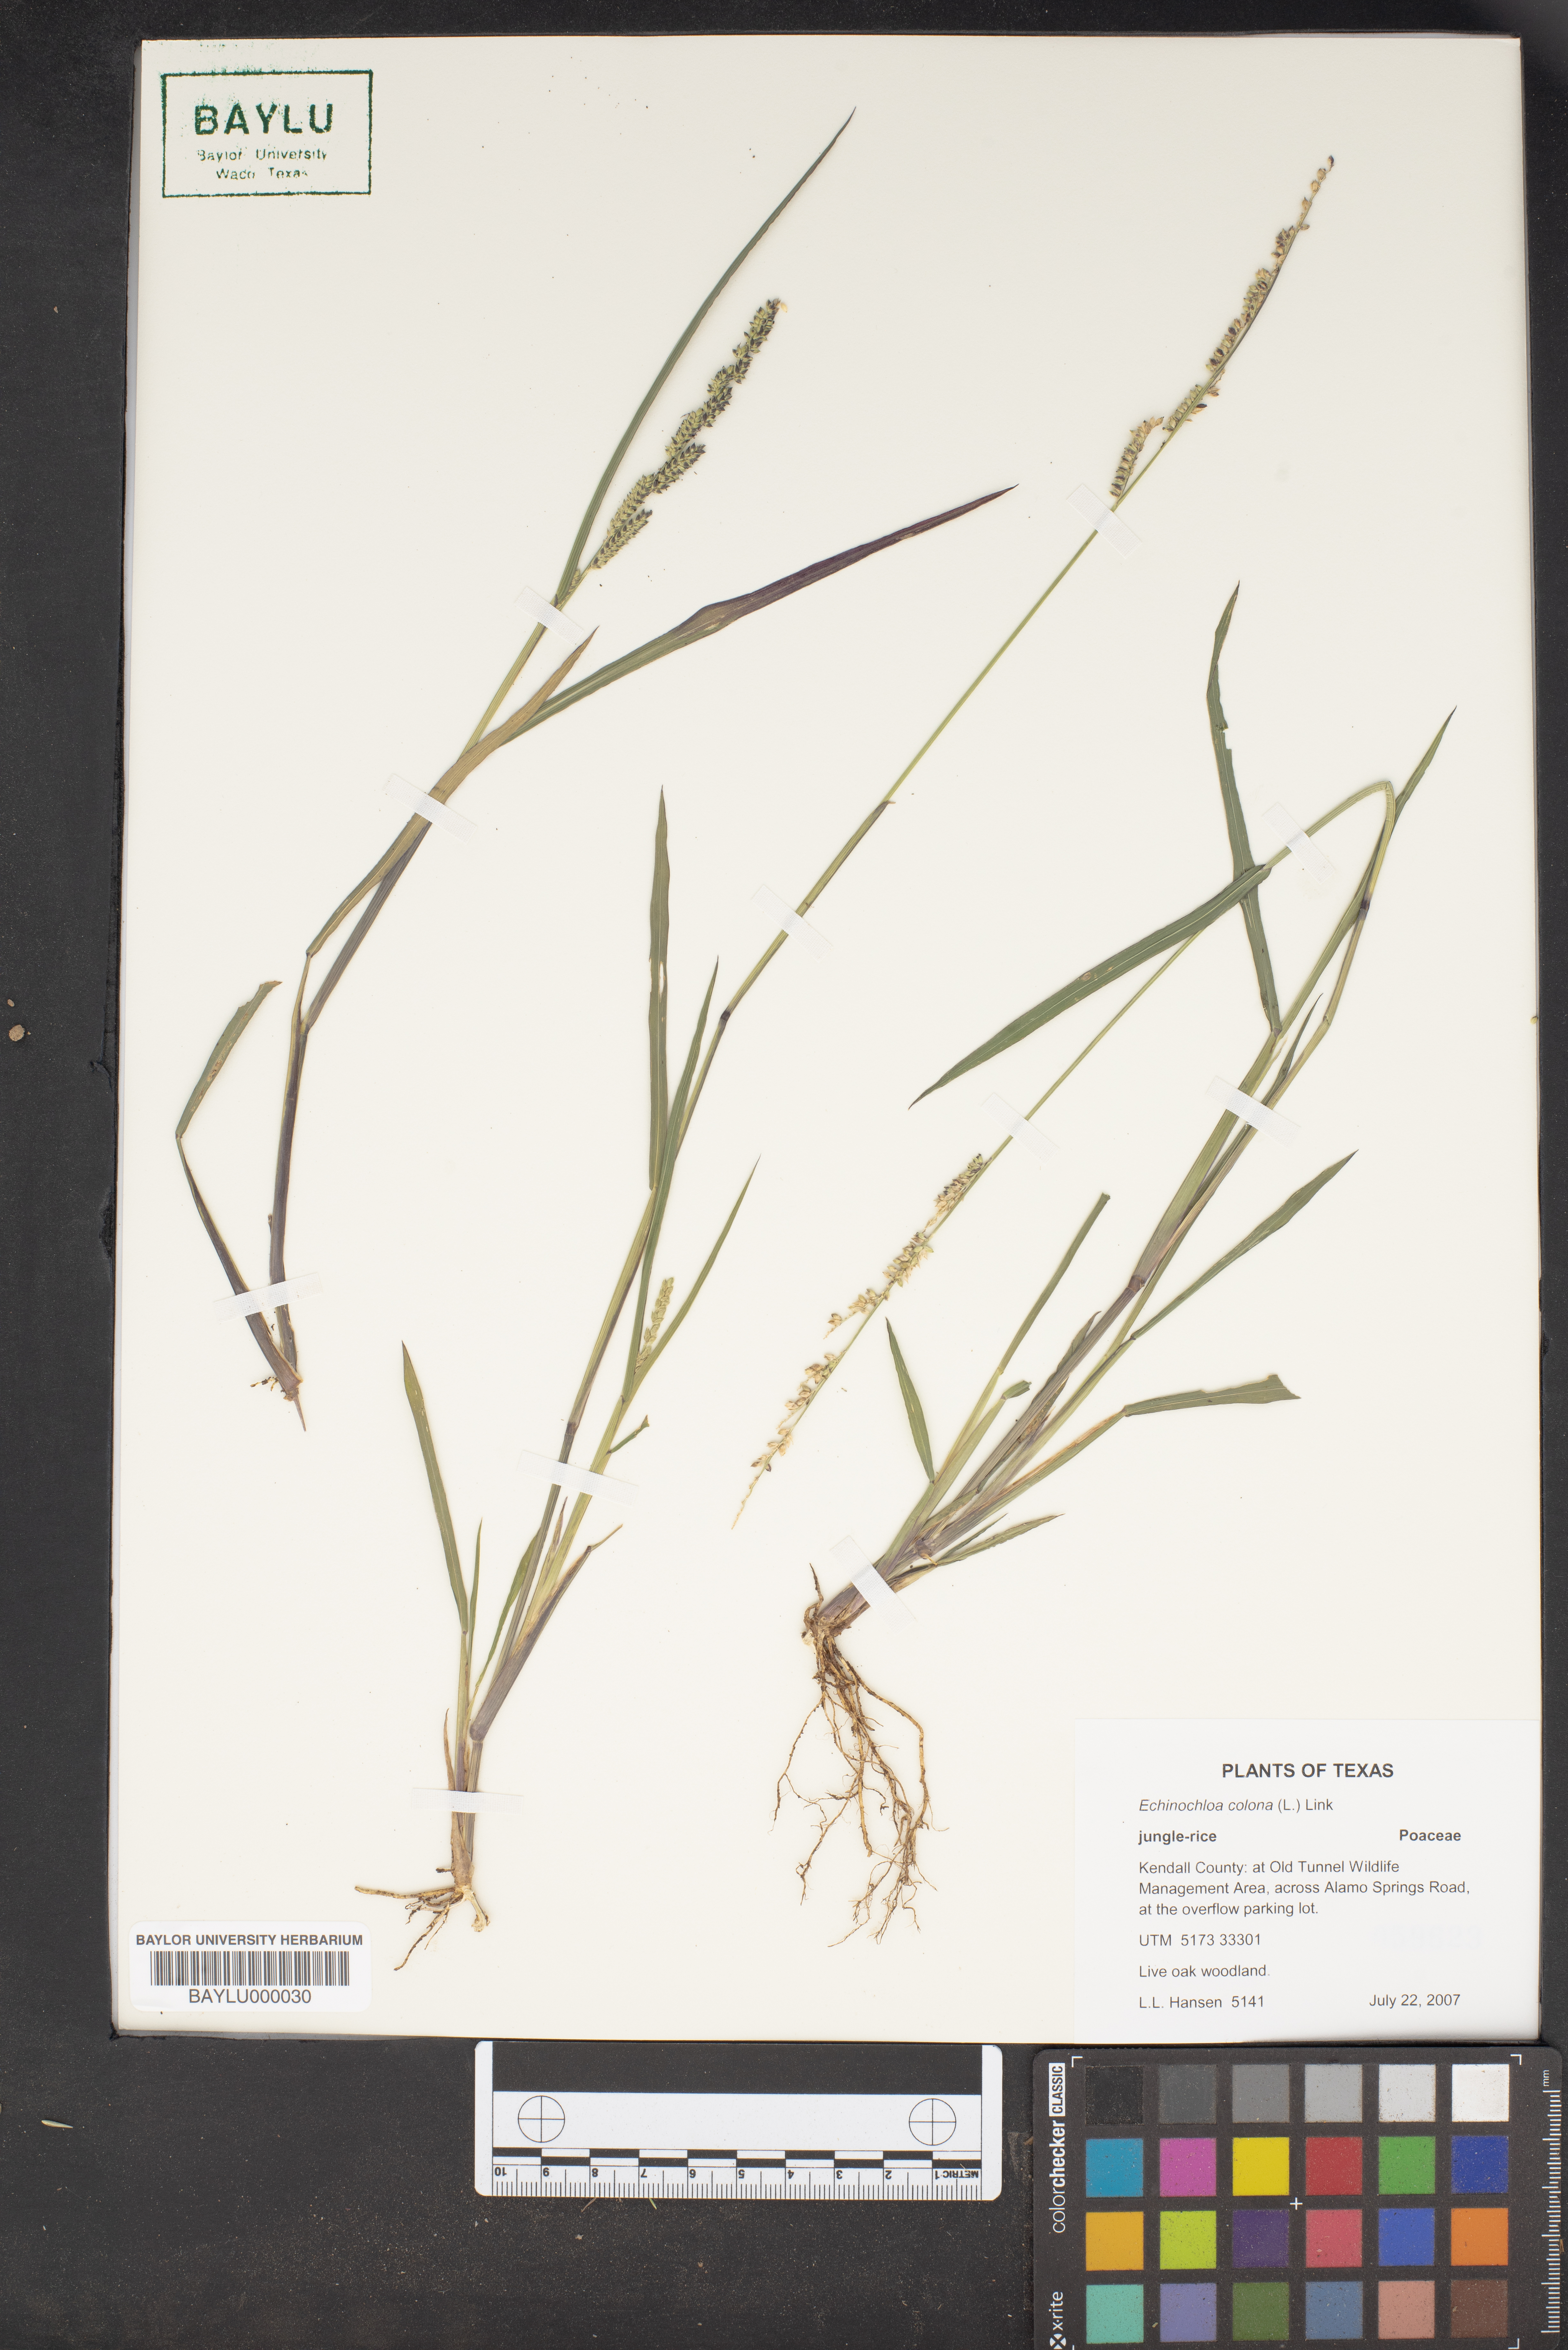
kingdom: Plantae
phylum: Tracheophyta
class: Liliopsida
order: Poales
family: Poaceae
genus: Echinochloa
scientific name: Echinochloa colonum
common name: Jungle rice
